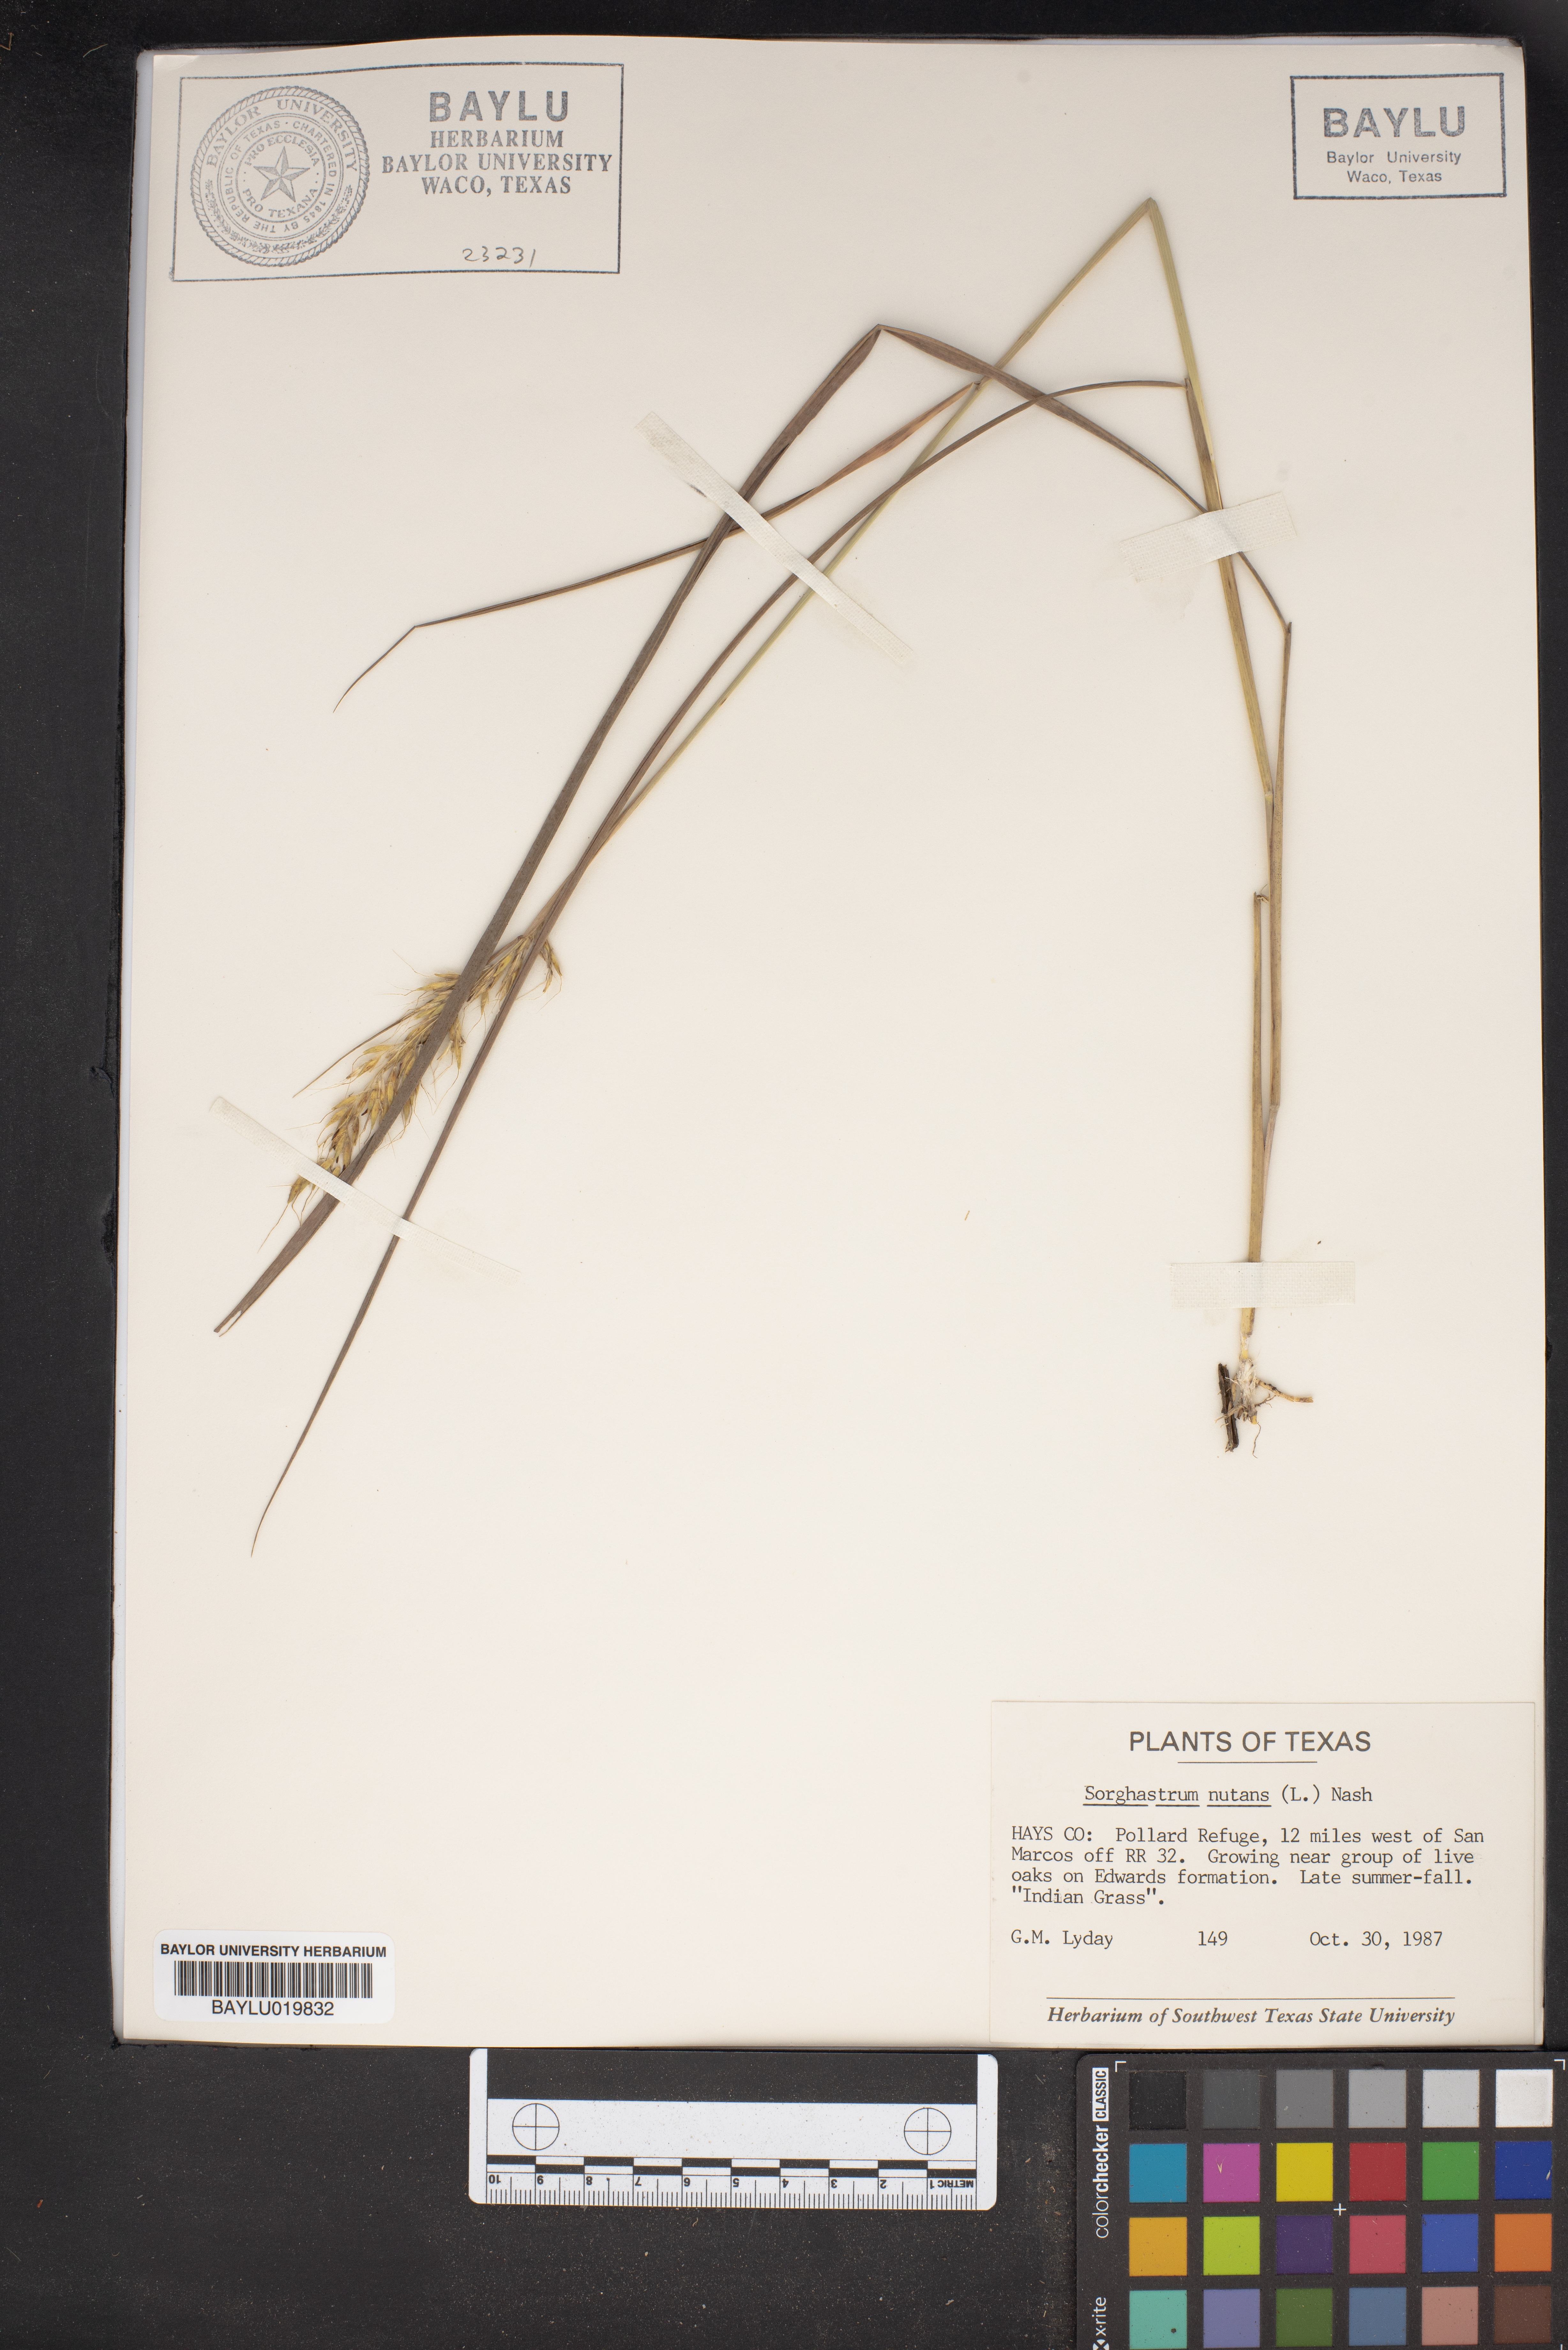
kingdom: Plantae
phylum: Tracheophyta
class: Liliopsida
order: Poales
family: Poaceae
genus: Sorghastrum
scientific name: Sorghastrum nutans
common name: Indian grass
